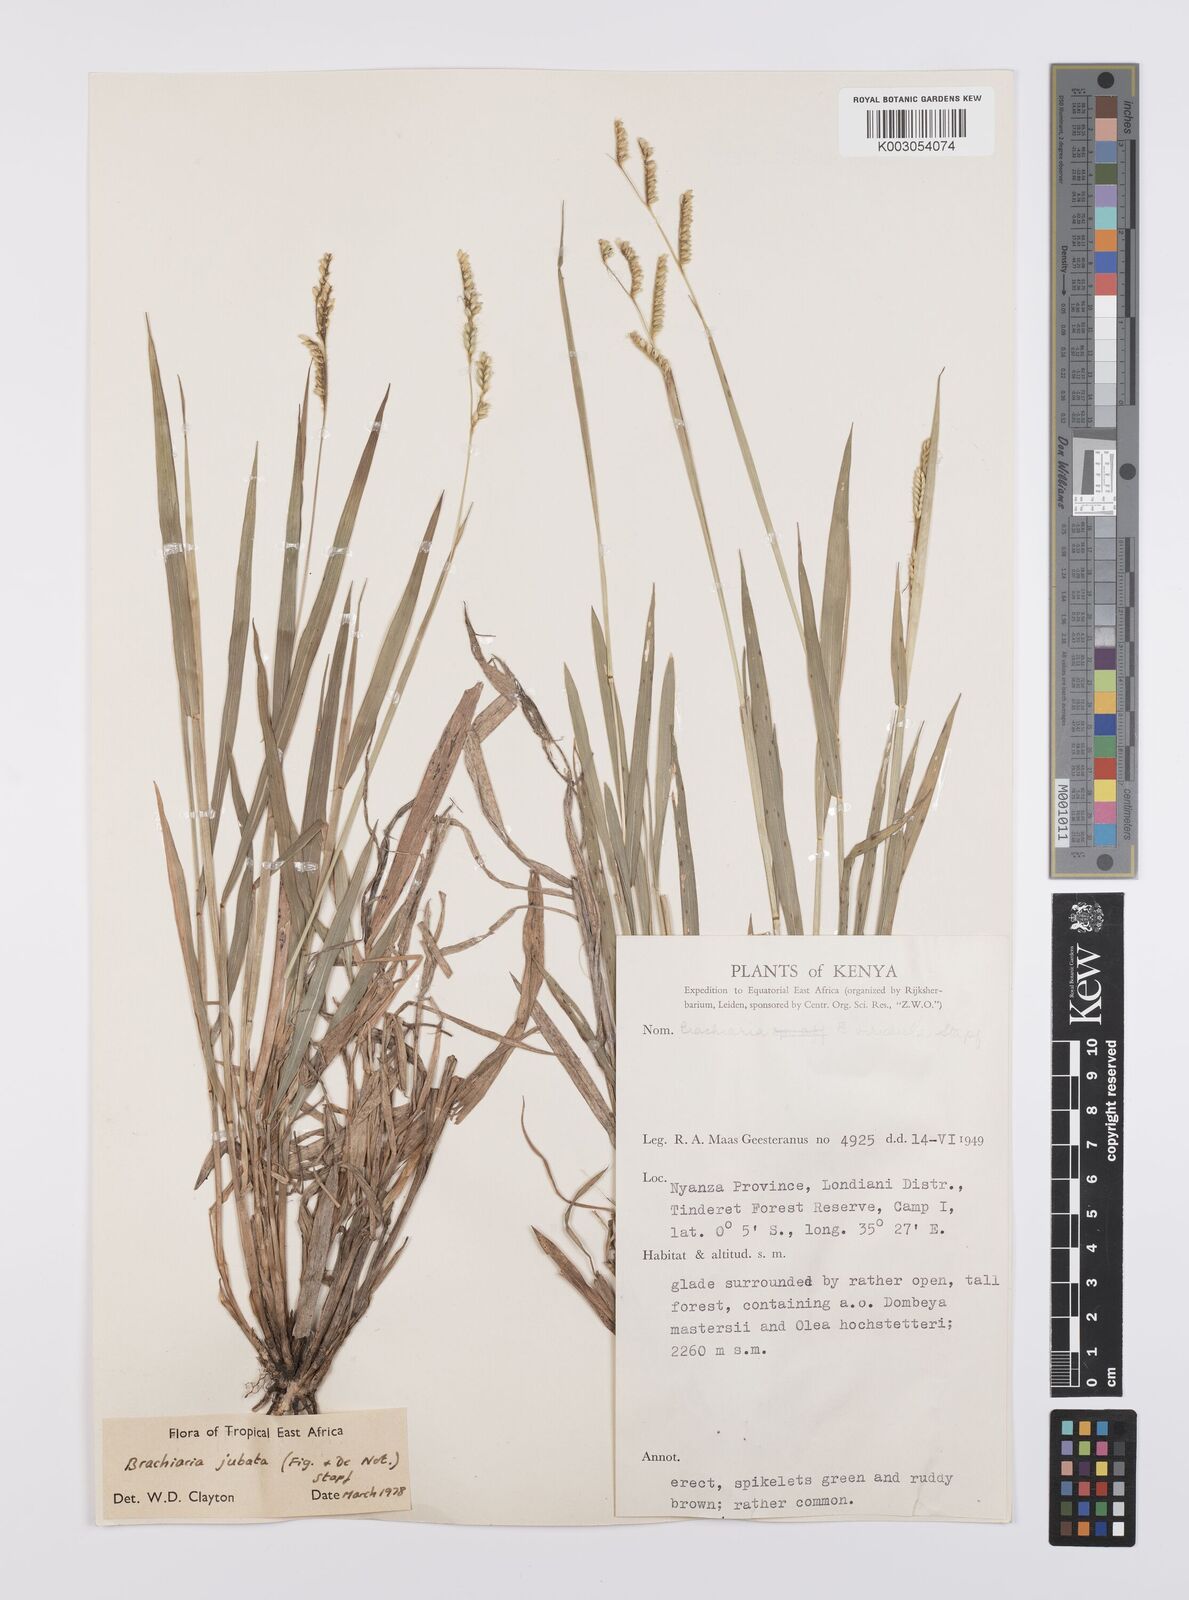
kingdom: Plantae
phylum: Tracheophyta
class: Liliopsida
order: Poales
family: Poaceae
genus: Urochloa
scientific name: Urochloa jubata
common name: Buffalograss
